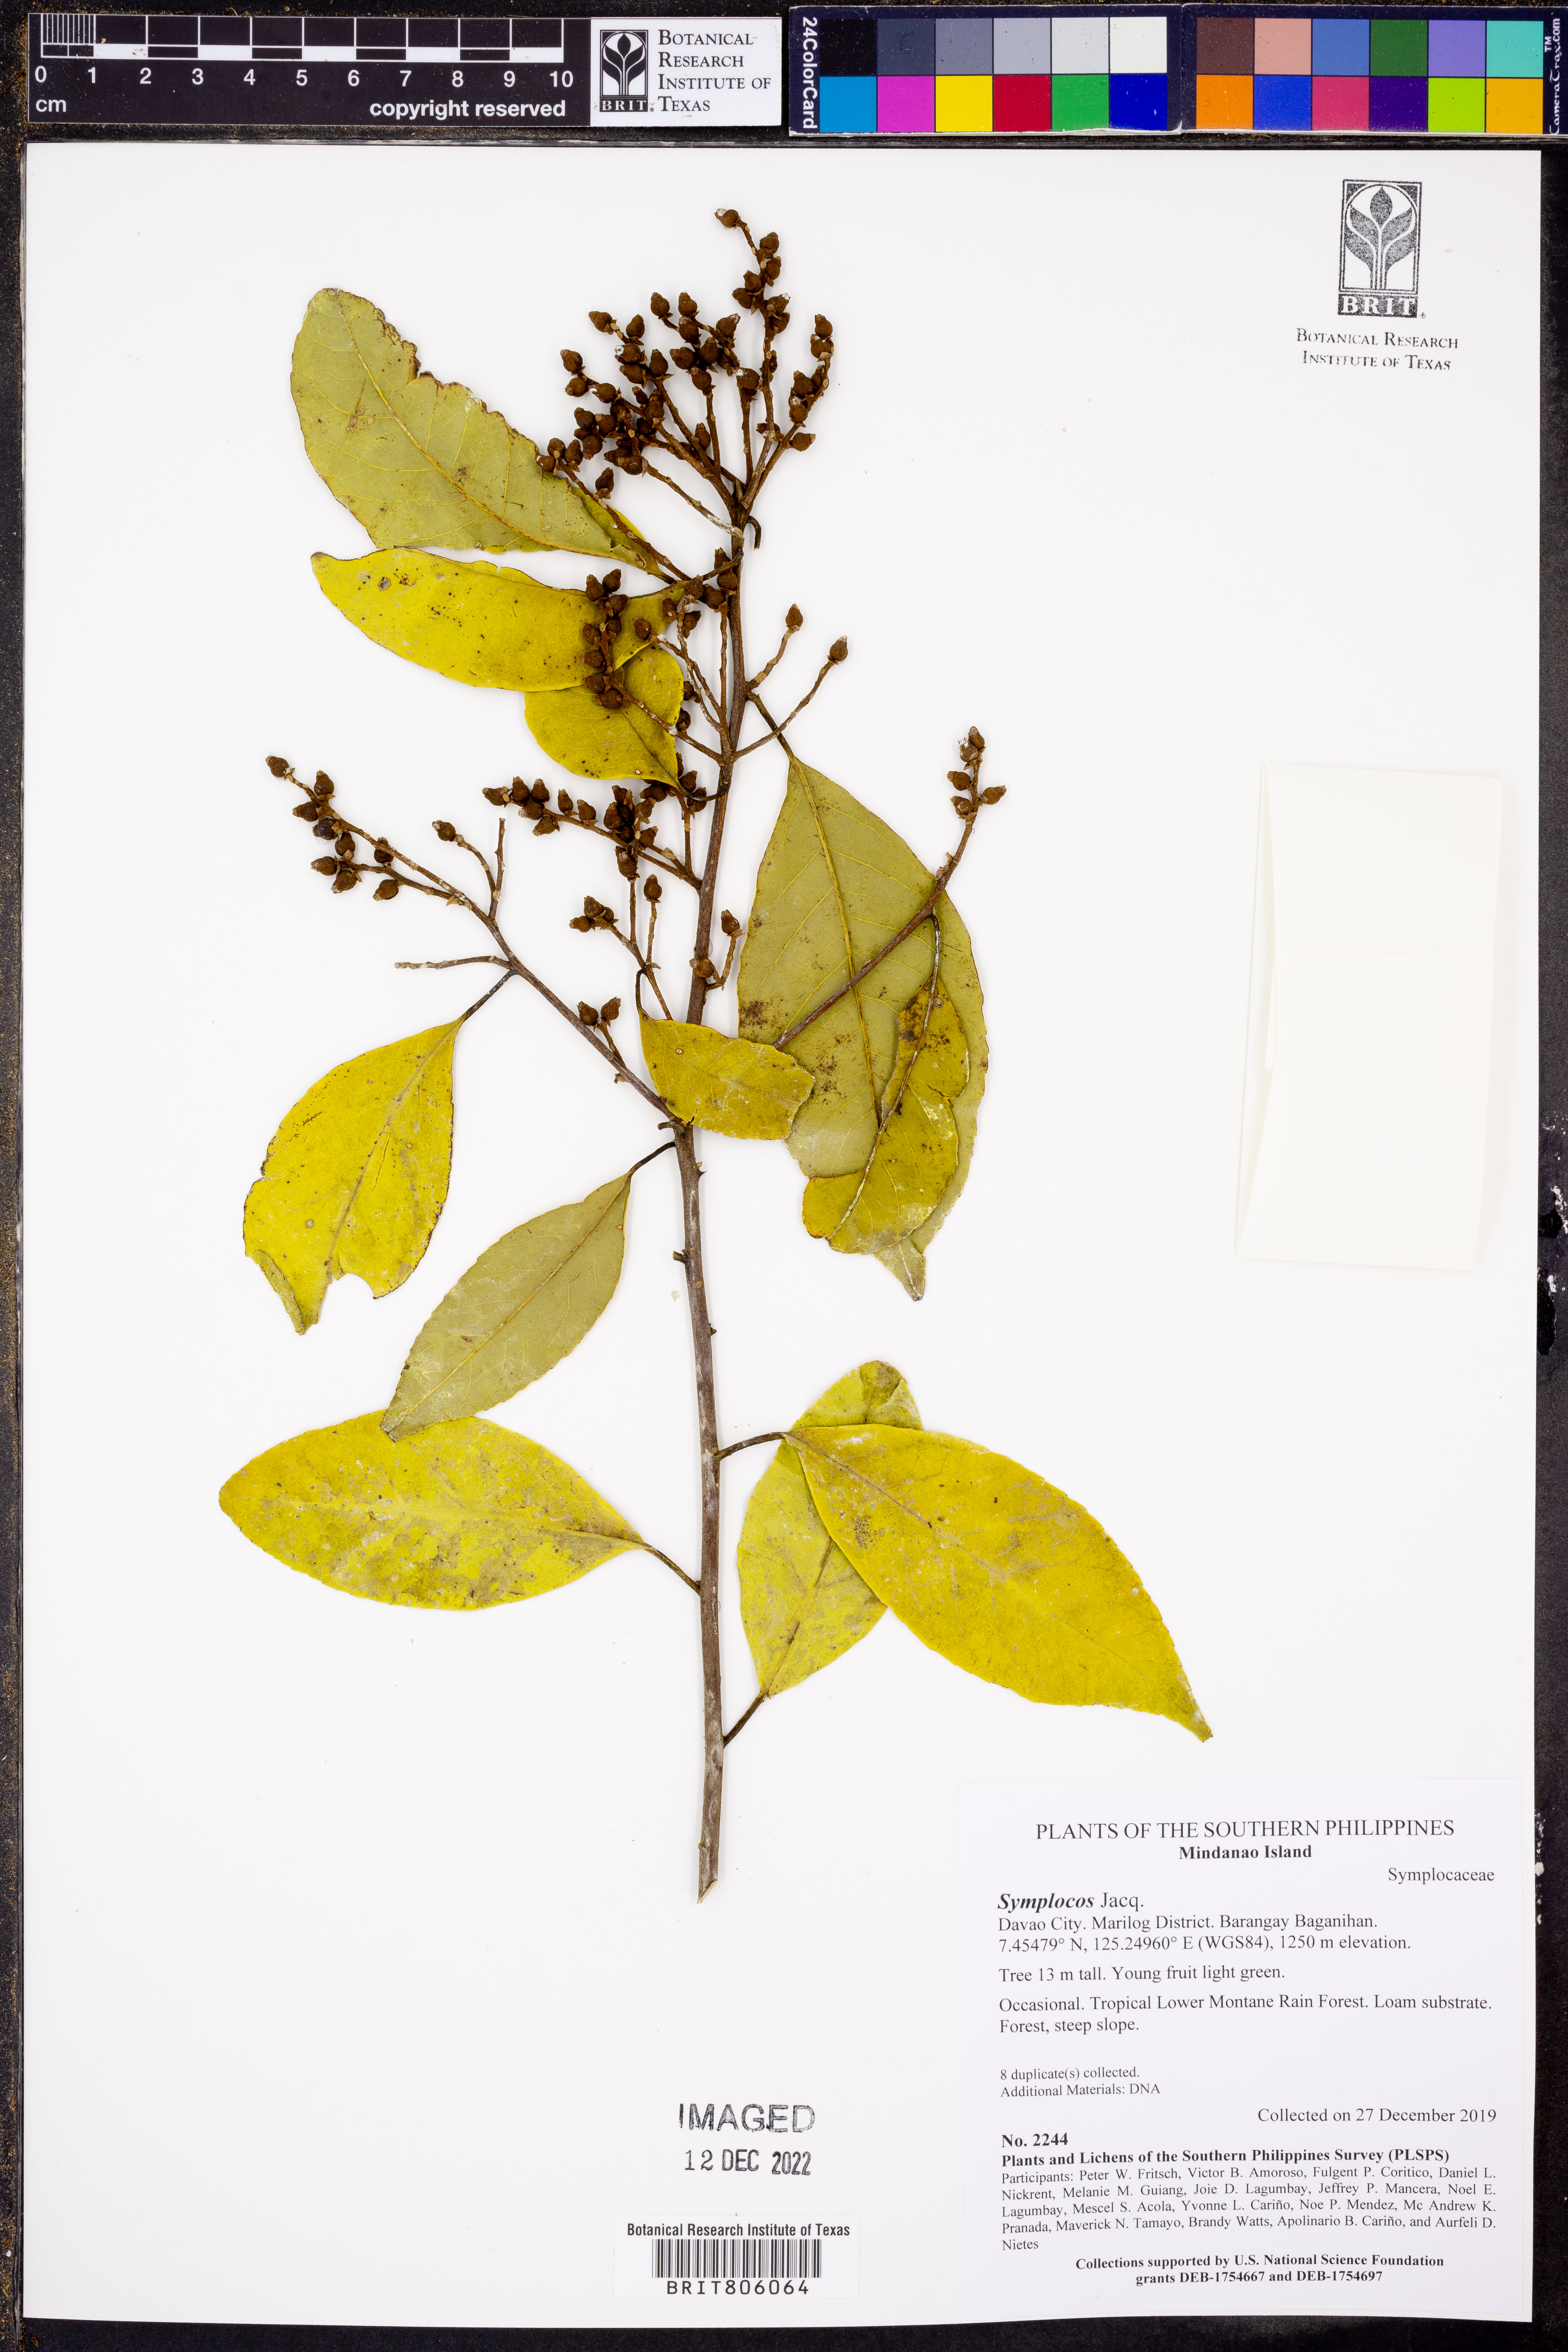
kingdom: Plantae
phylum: Tracheophyta
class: Magnoliopsida
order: Ericales
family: Symplocaceae
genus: Symplocos
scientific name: Symplocos
